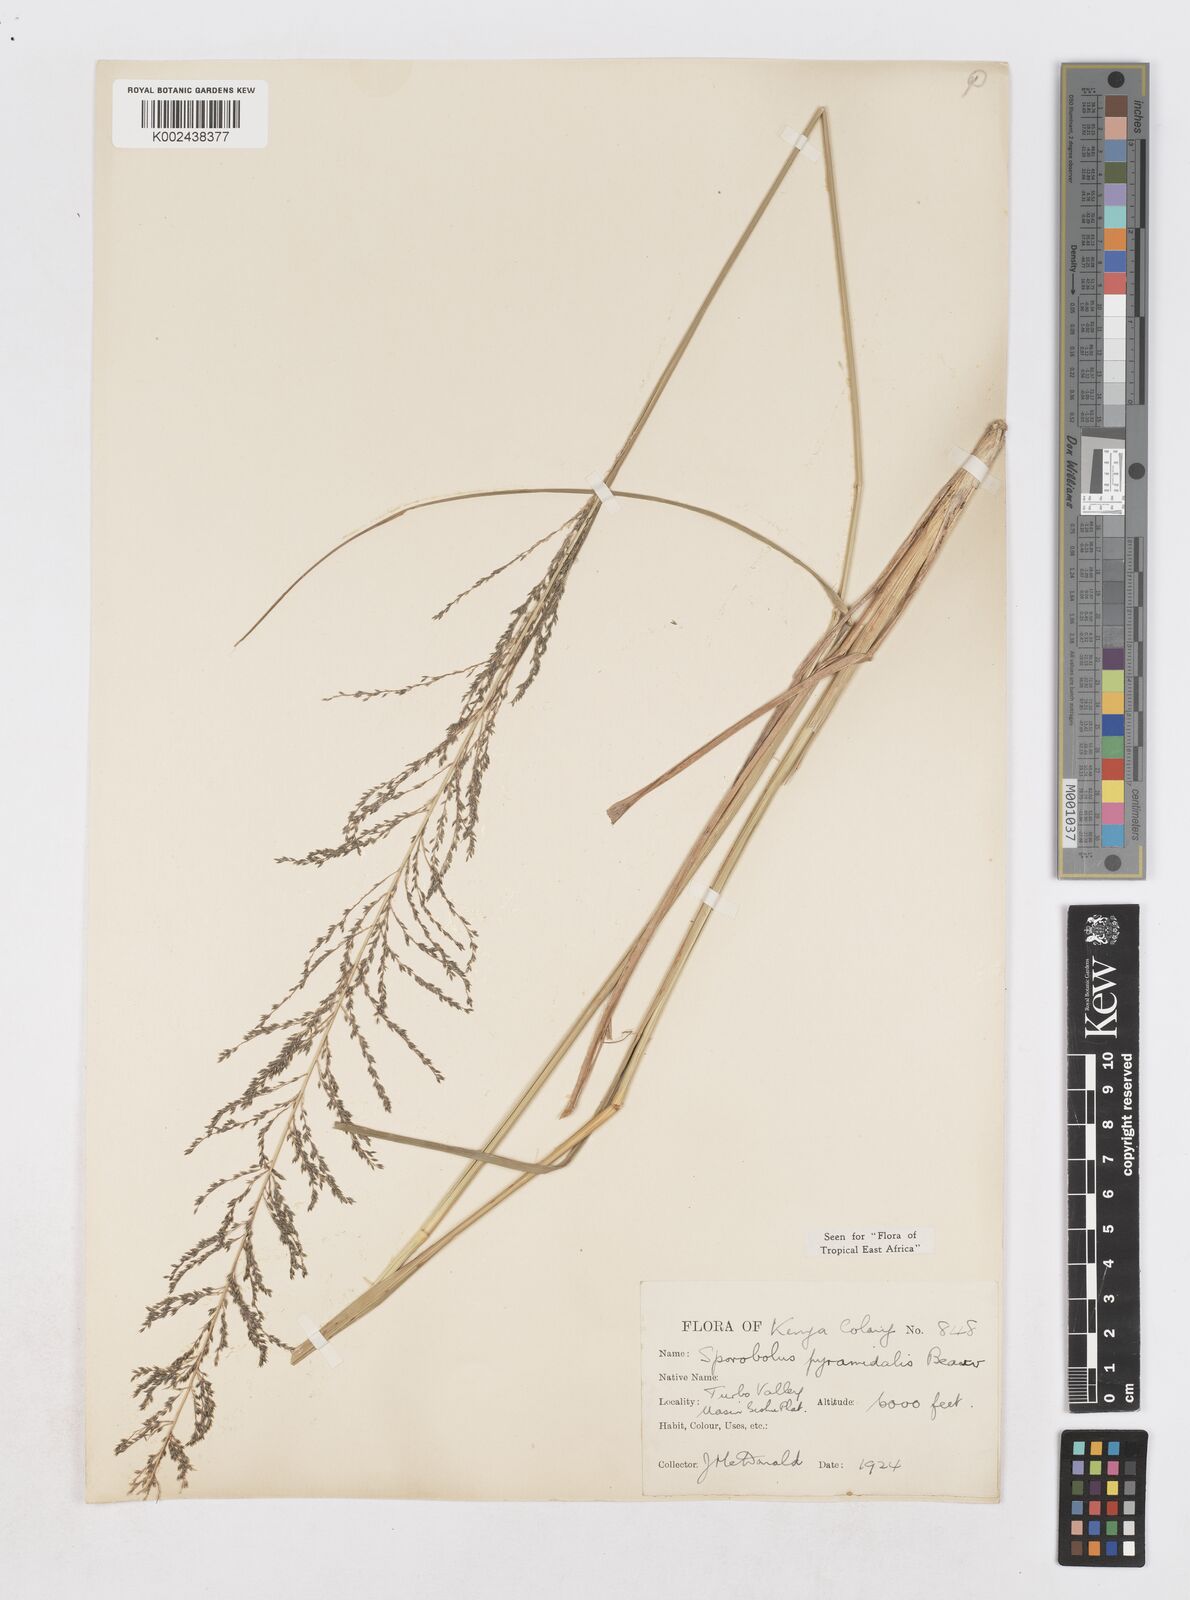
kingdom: Plantae
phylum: Tracheophyta
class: Liliopsida
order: Poales
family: Poaceae
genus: Sporobolus
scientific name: Sporobolus pyramidalis
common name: West indian dropseed
